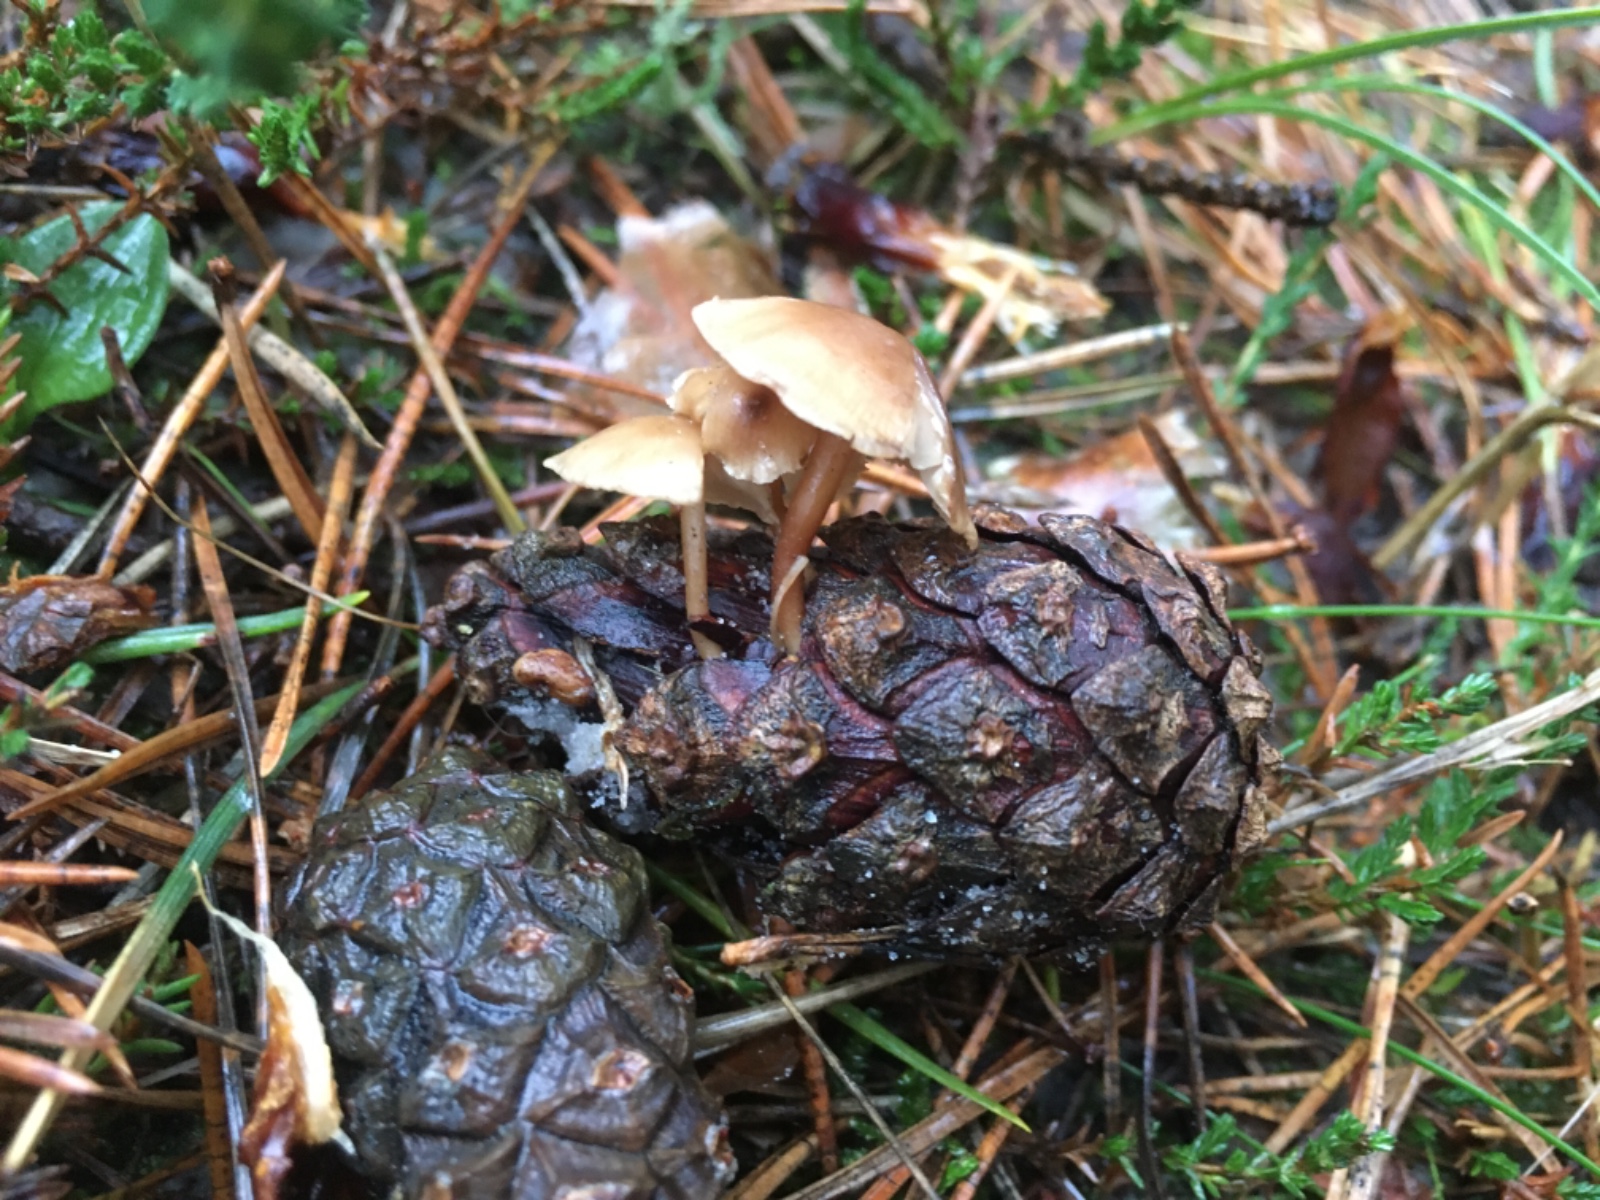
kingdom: Fungi
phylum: Basidiomycota
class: Agaricomycetes
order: Agaricales
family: Marasmiaceae
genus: Baeospora
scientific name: Baeospora myosura
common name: koglebruskhat
